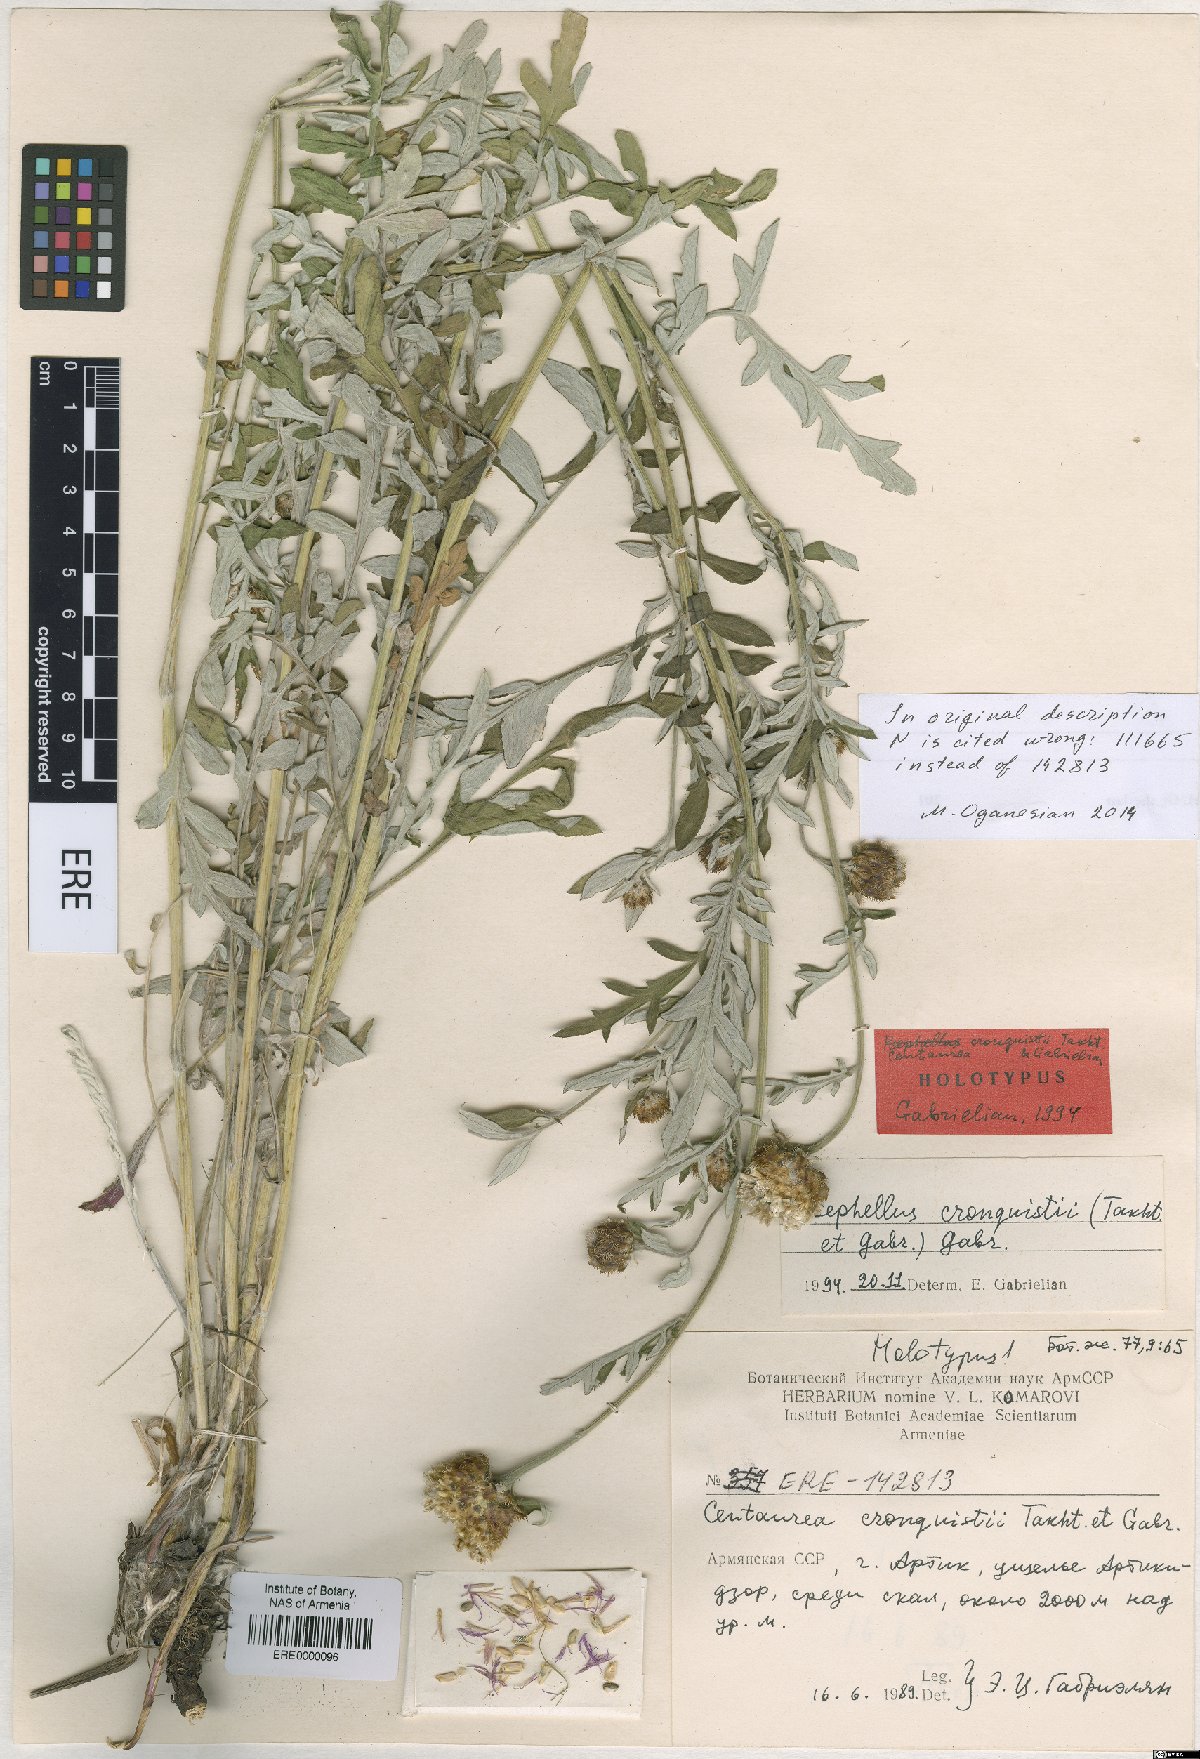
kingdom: Plantae
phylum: Tracheophyta
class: Magnoliopsida
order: Asterales
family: Asteraceae
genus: Psephellus
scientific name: Psephellus cronquistii
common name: Cronquists's cornflower
